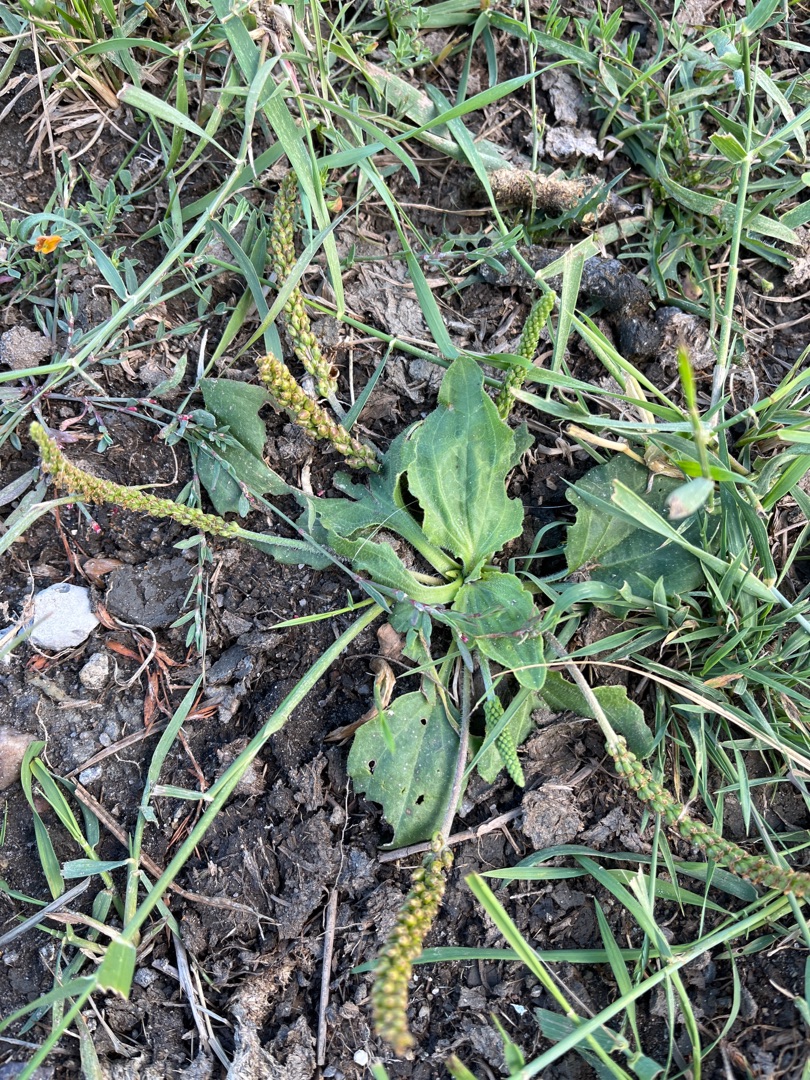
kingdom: Plantae
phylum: Tracheophyta
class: Magnoliopsida
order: Lamiales
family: Plantaginaceae
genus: Plantago
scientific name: Plantago uliginosa
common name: Ager-vejbred
